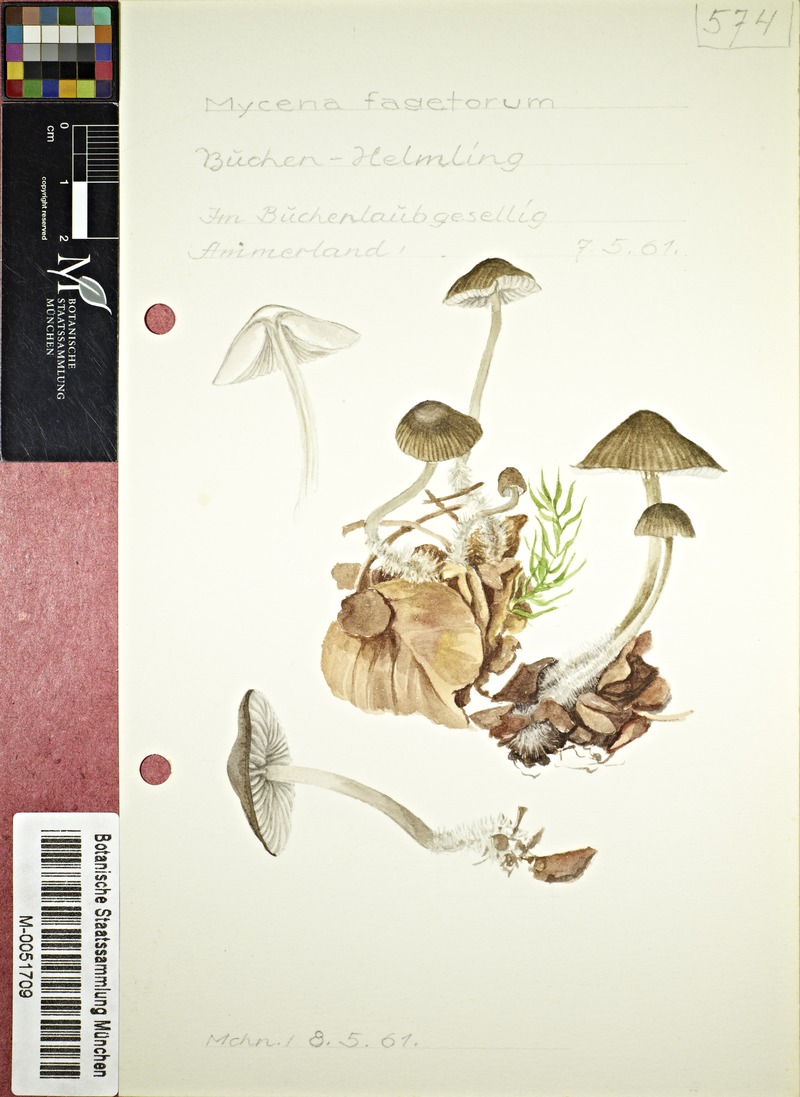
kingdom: Fungi
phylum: Basidiomycota
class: Agaricomycetes
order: Agaricales
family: Mycenaceae
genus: Mycena
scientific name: Mycena fagetorum
